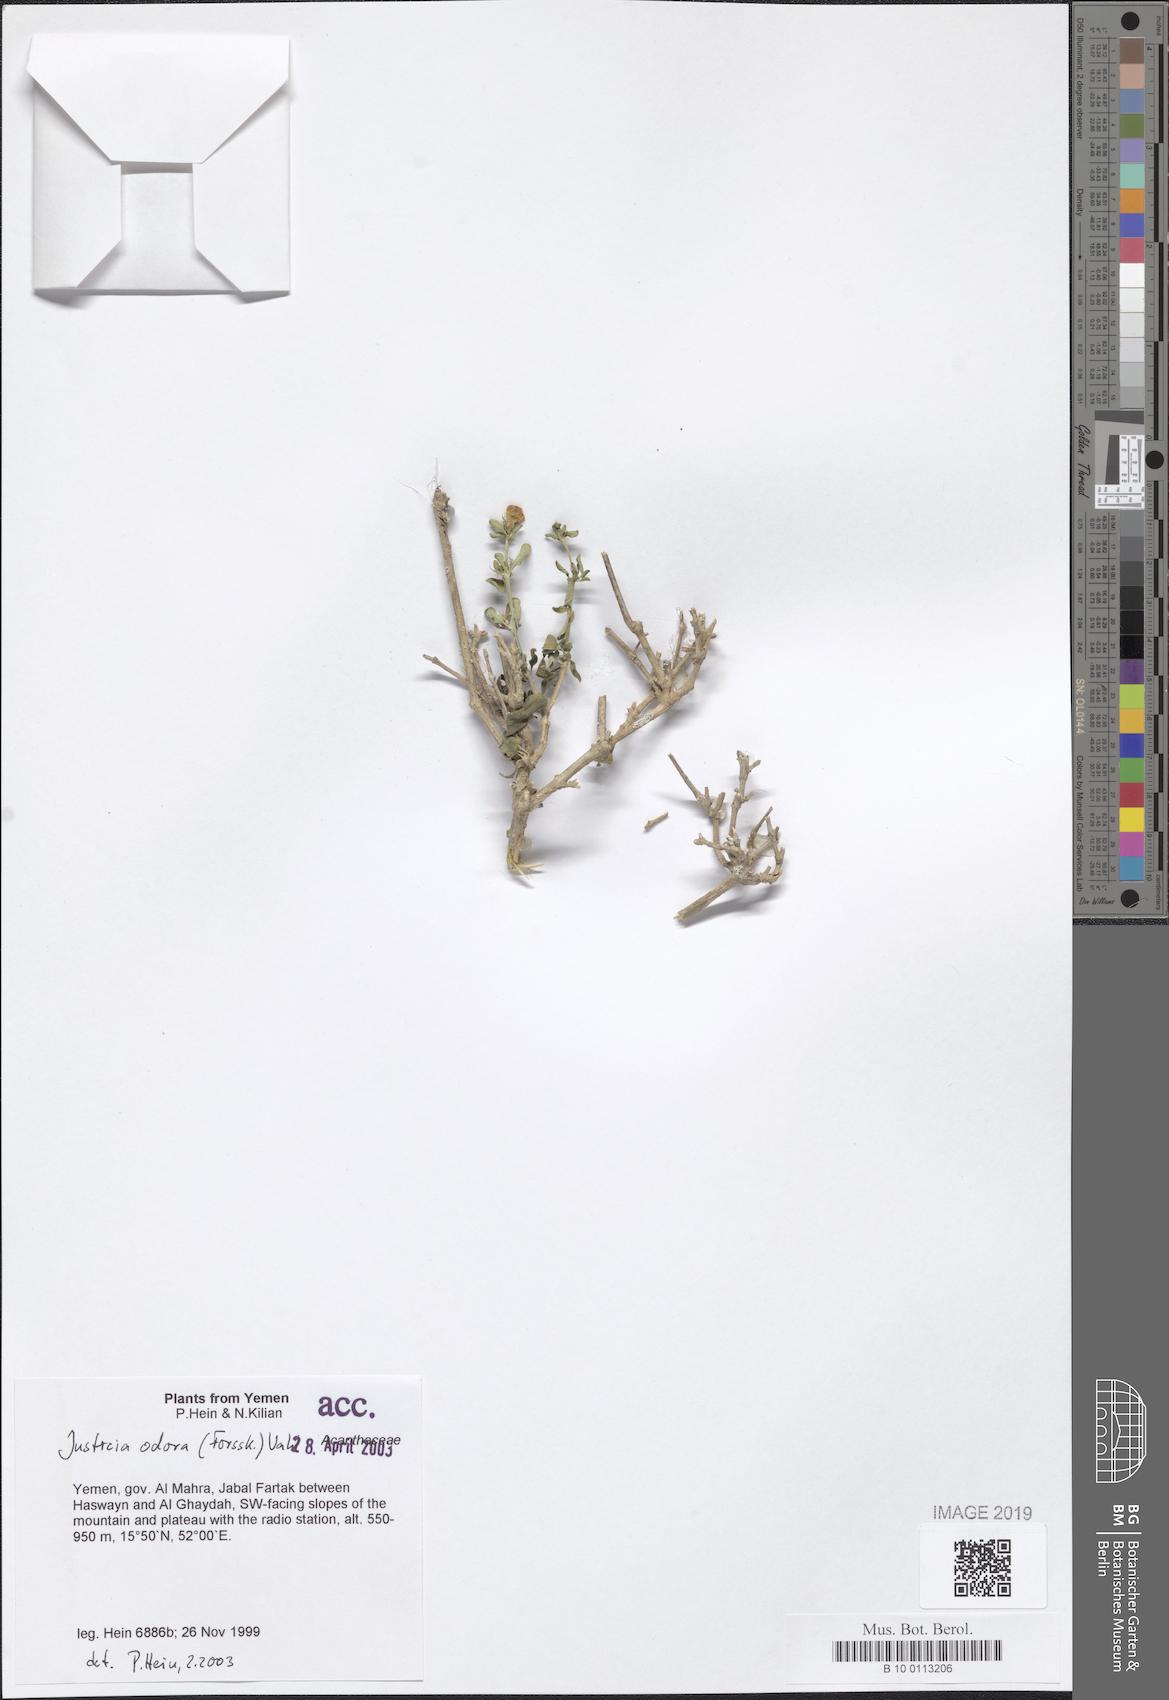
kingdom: Plantae
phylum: Tracheophyta
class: Magnoliopsida
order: Lamiales
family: Acanthaceae
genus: Justicia
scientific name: Justicia odora
